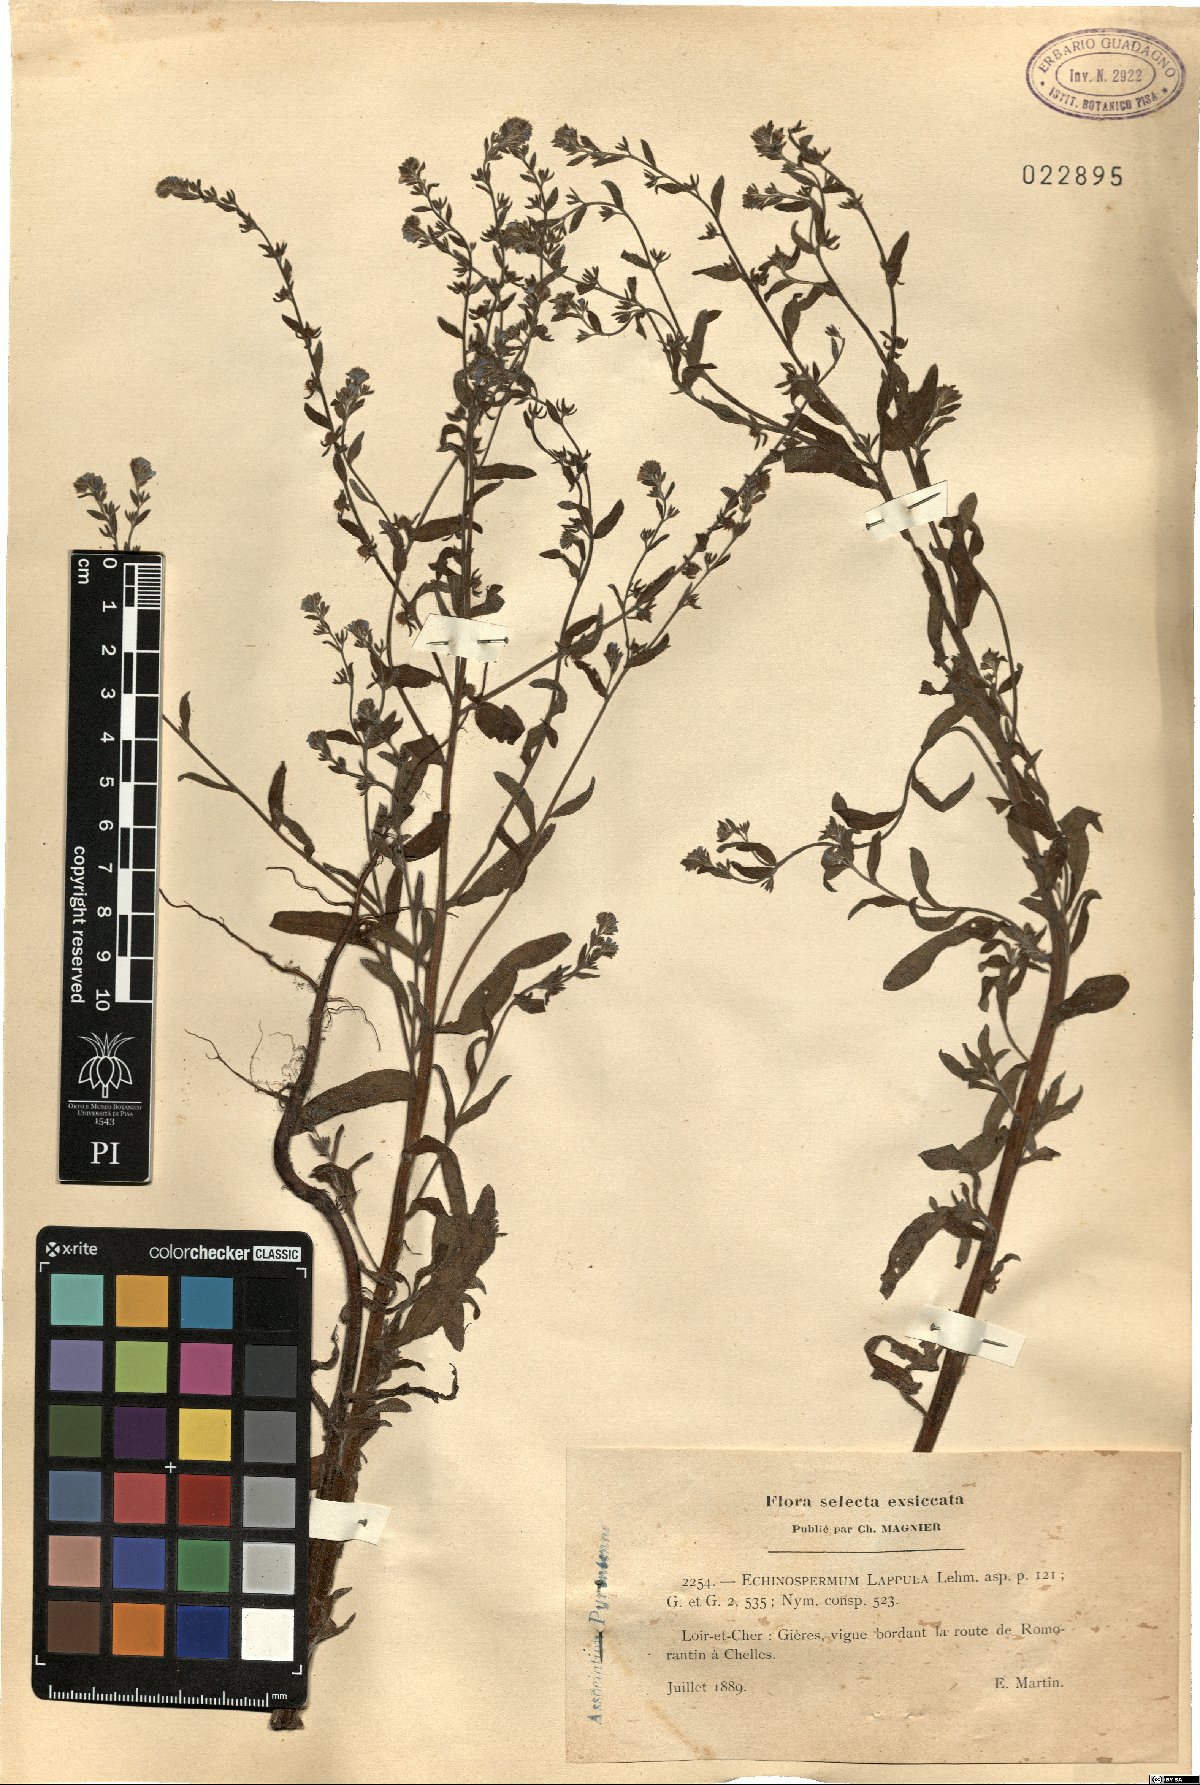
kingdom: Plantae
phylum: Tracheophyta
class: Magnoliopsida
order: Boraginales
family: Boraginaceae
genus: Lappula
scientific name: Lappula squarrosa
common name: European stickseed
